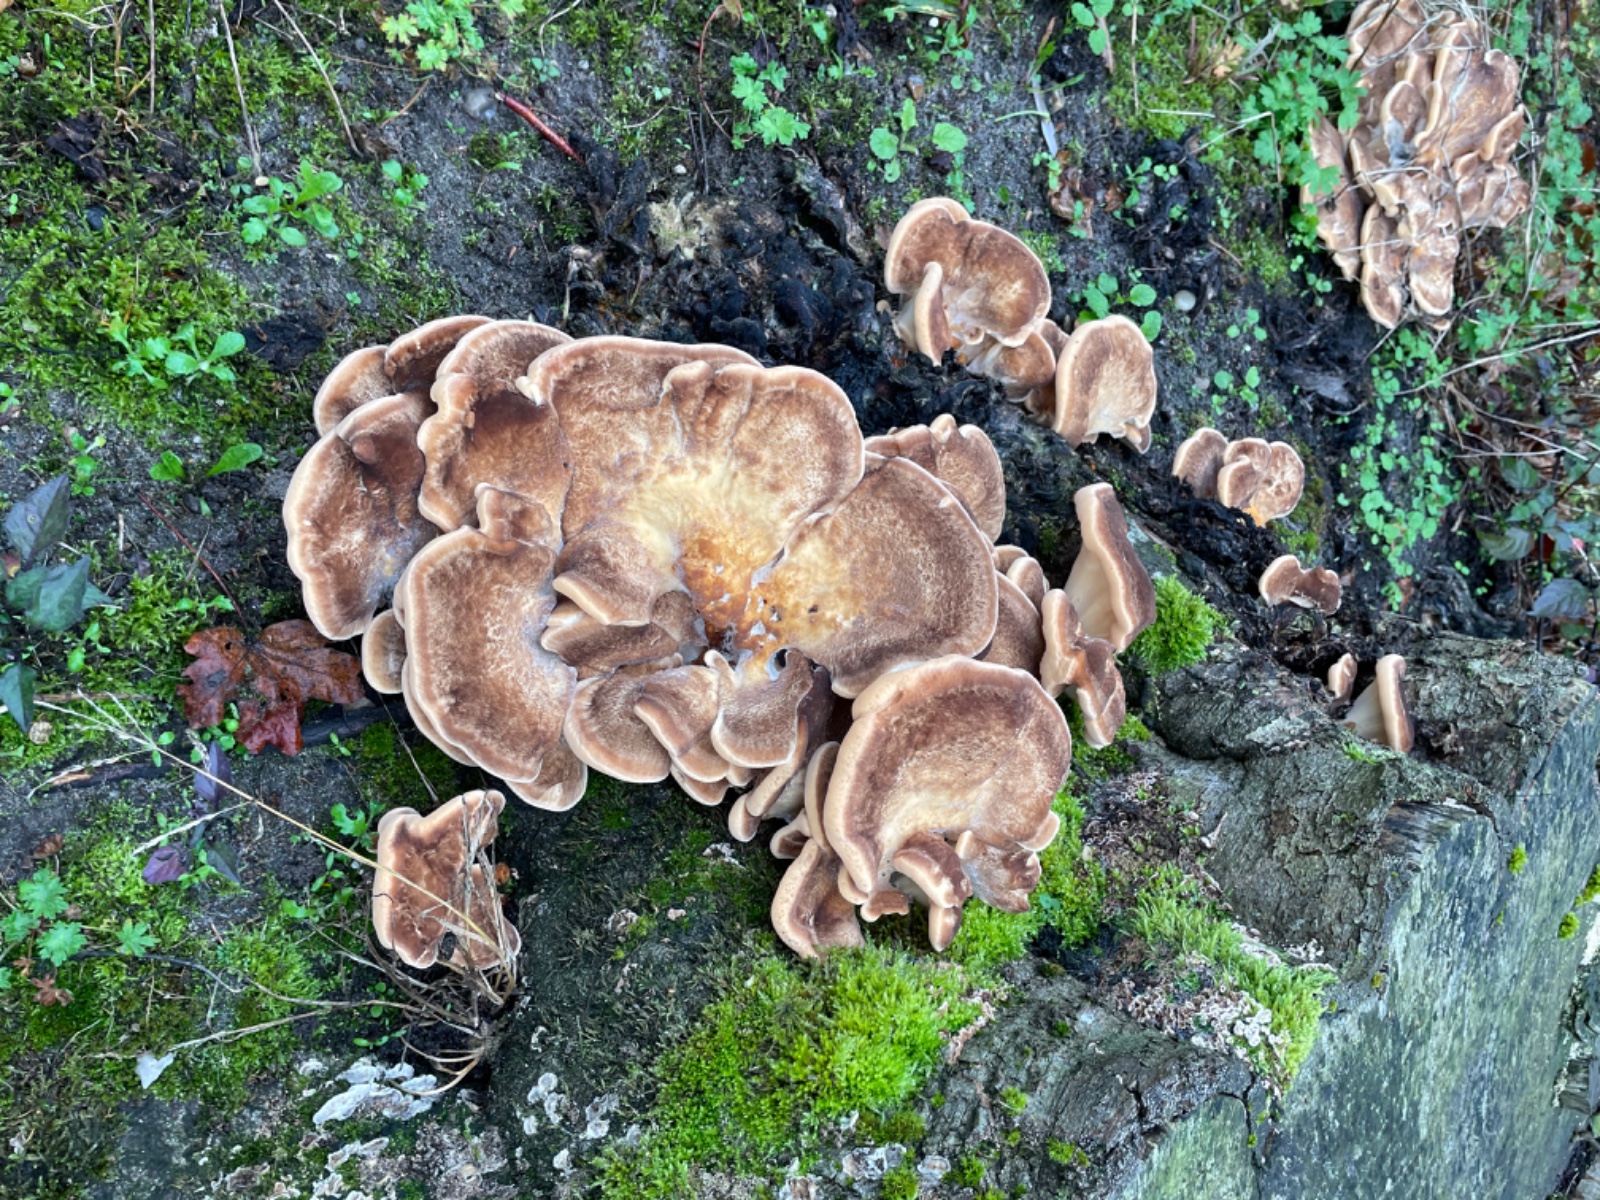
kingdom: Fungi
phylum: Basidiomycota
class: Agaricomycetes
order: Polyporales
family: Meripilaceae
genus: Meripilus
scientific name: Meripilus giganteus
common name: kæmpeporesvamp
